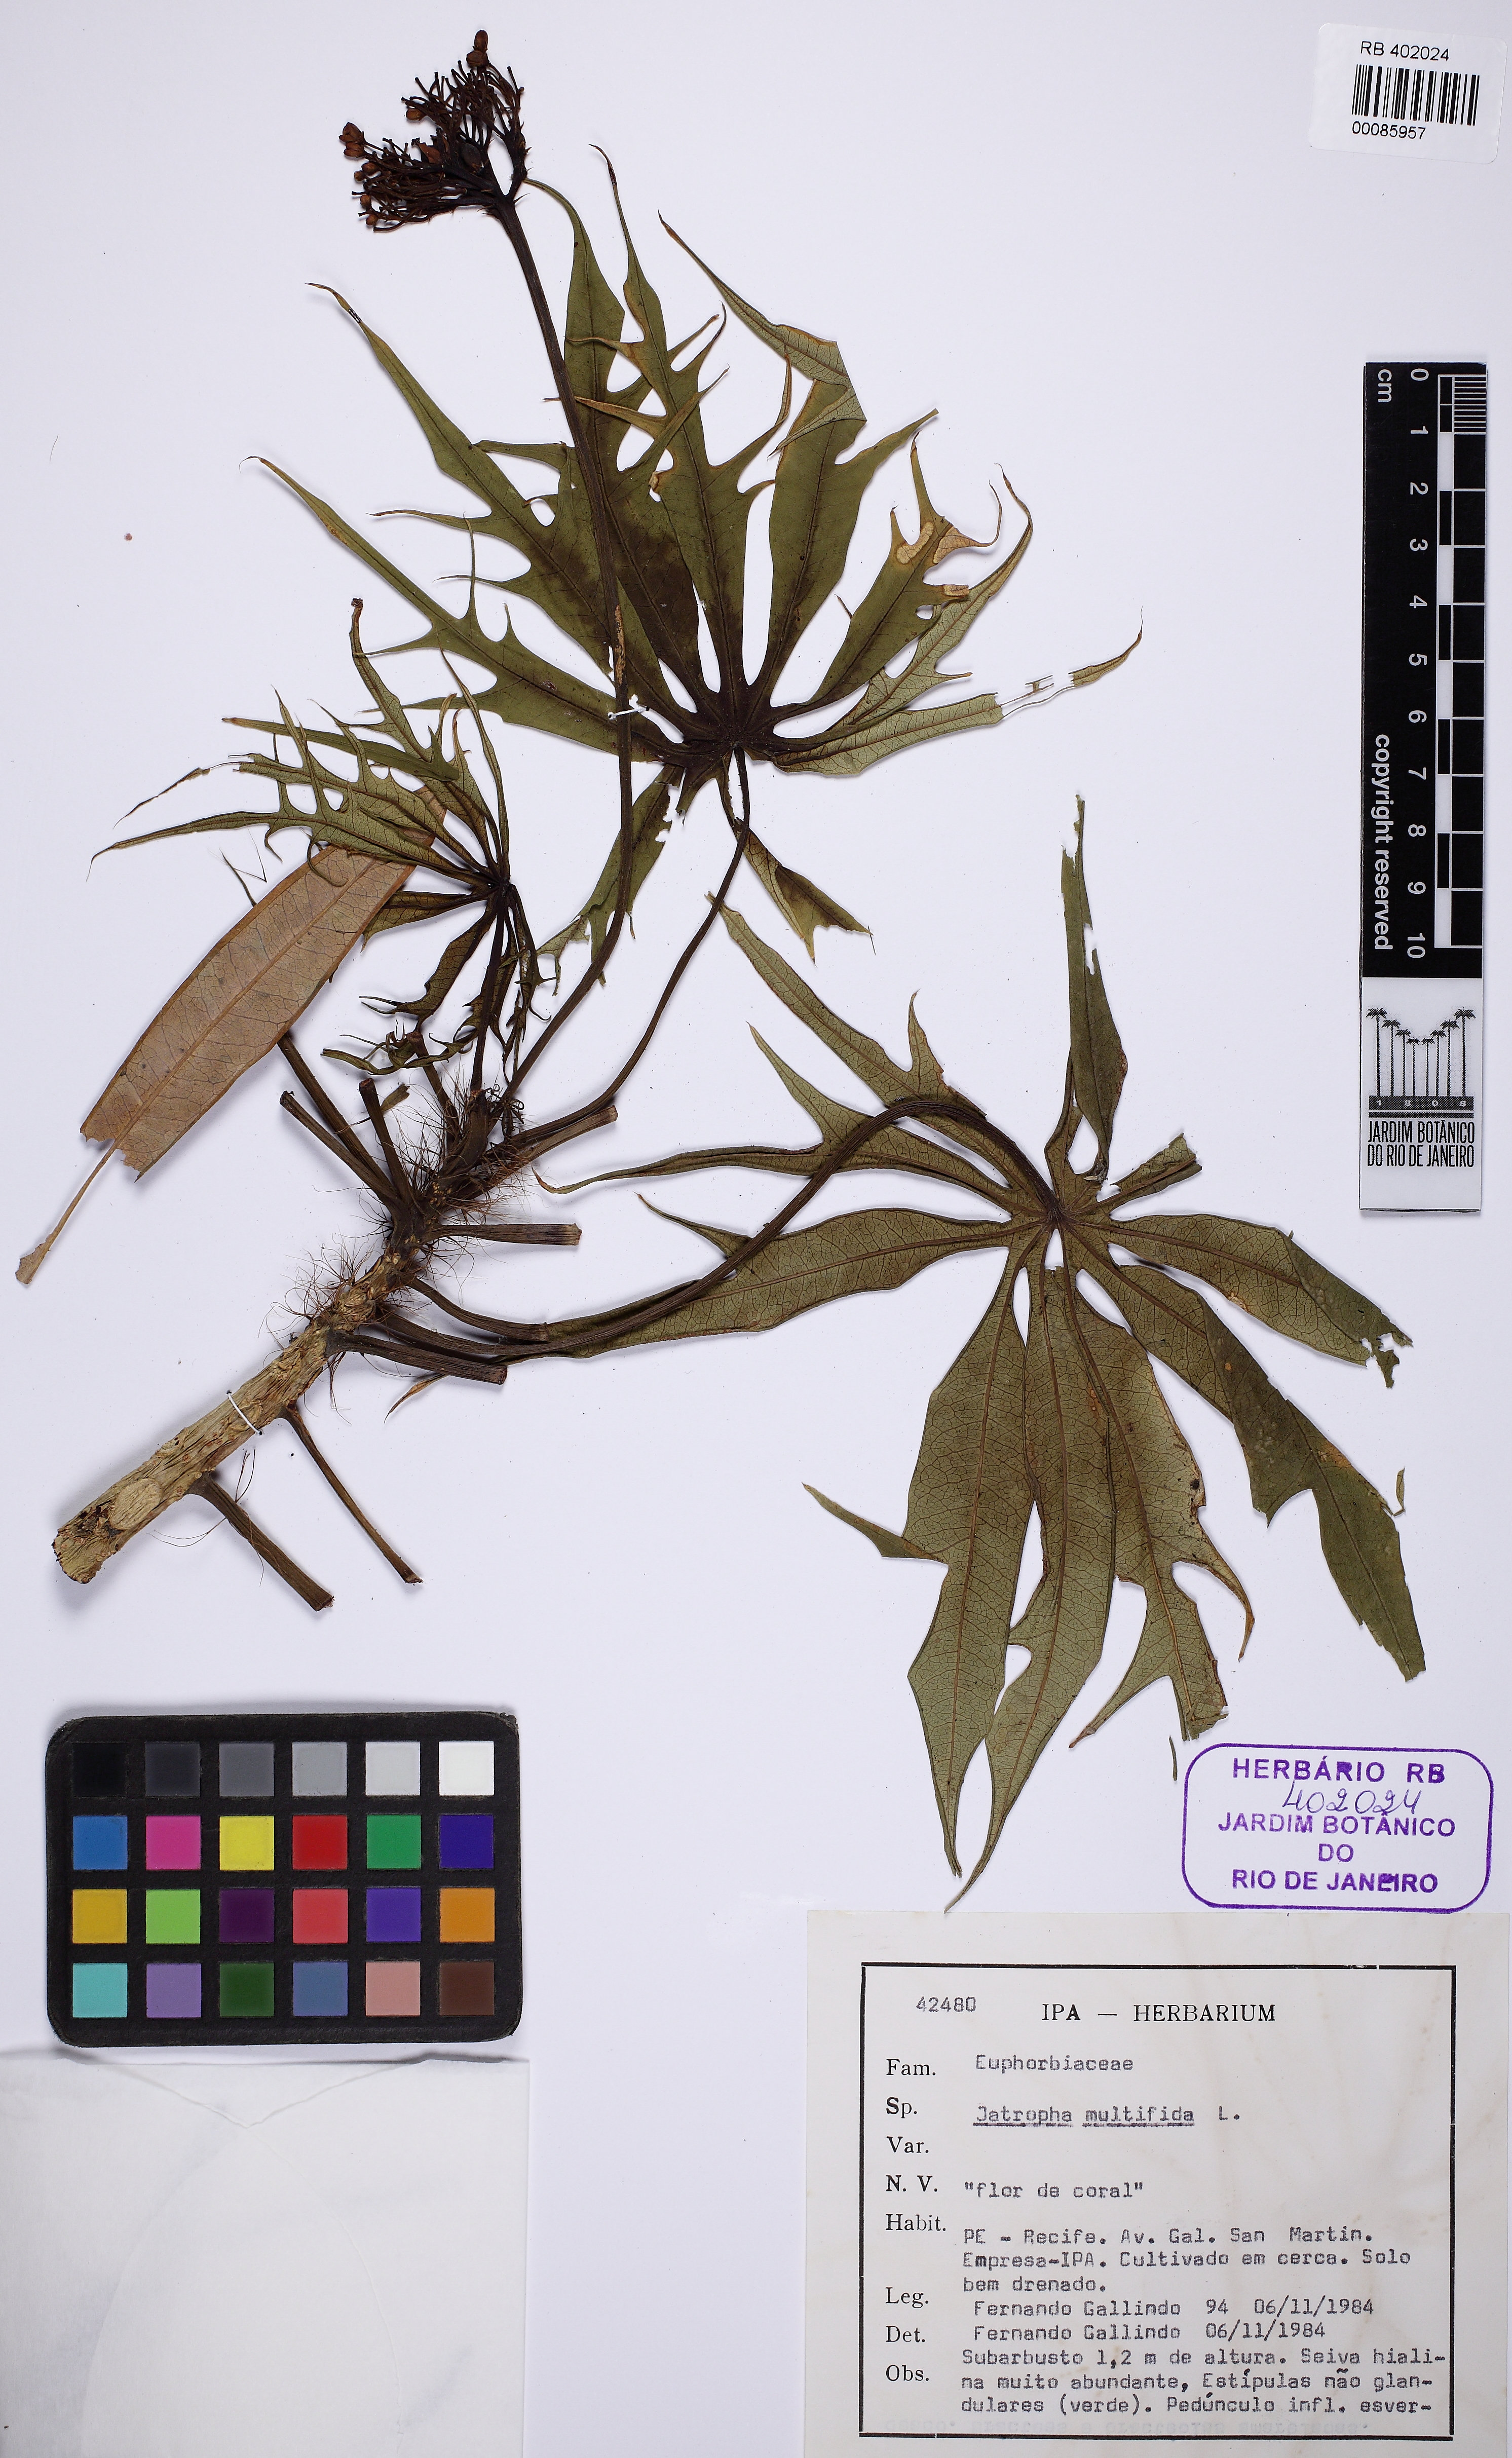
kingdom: Plantae
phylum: Tracheophyta
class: Magnoliopsida
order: Malpighiales
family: Euphorbiaceae
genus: Jatropha
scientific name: Jatropha multifida
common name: Coralbush
